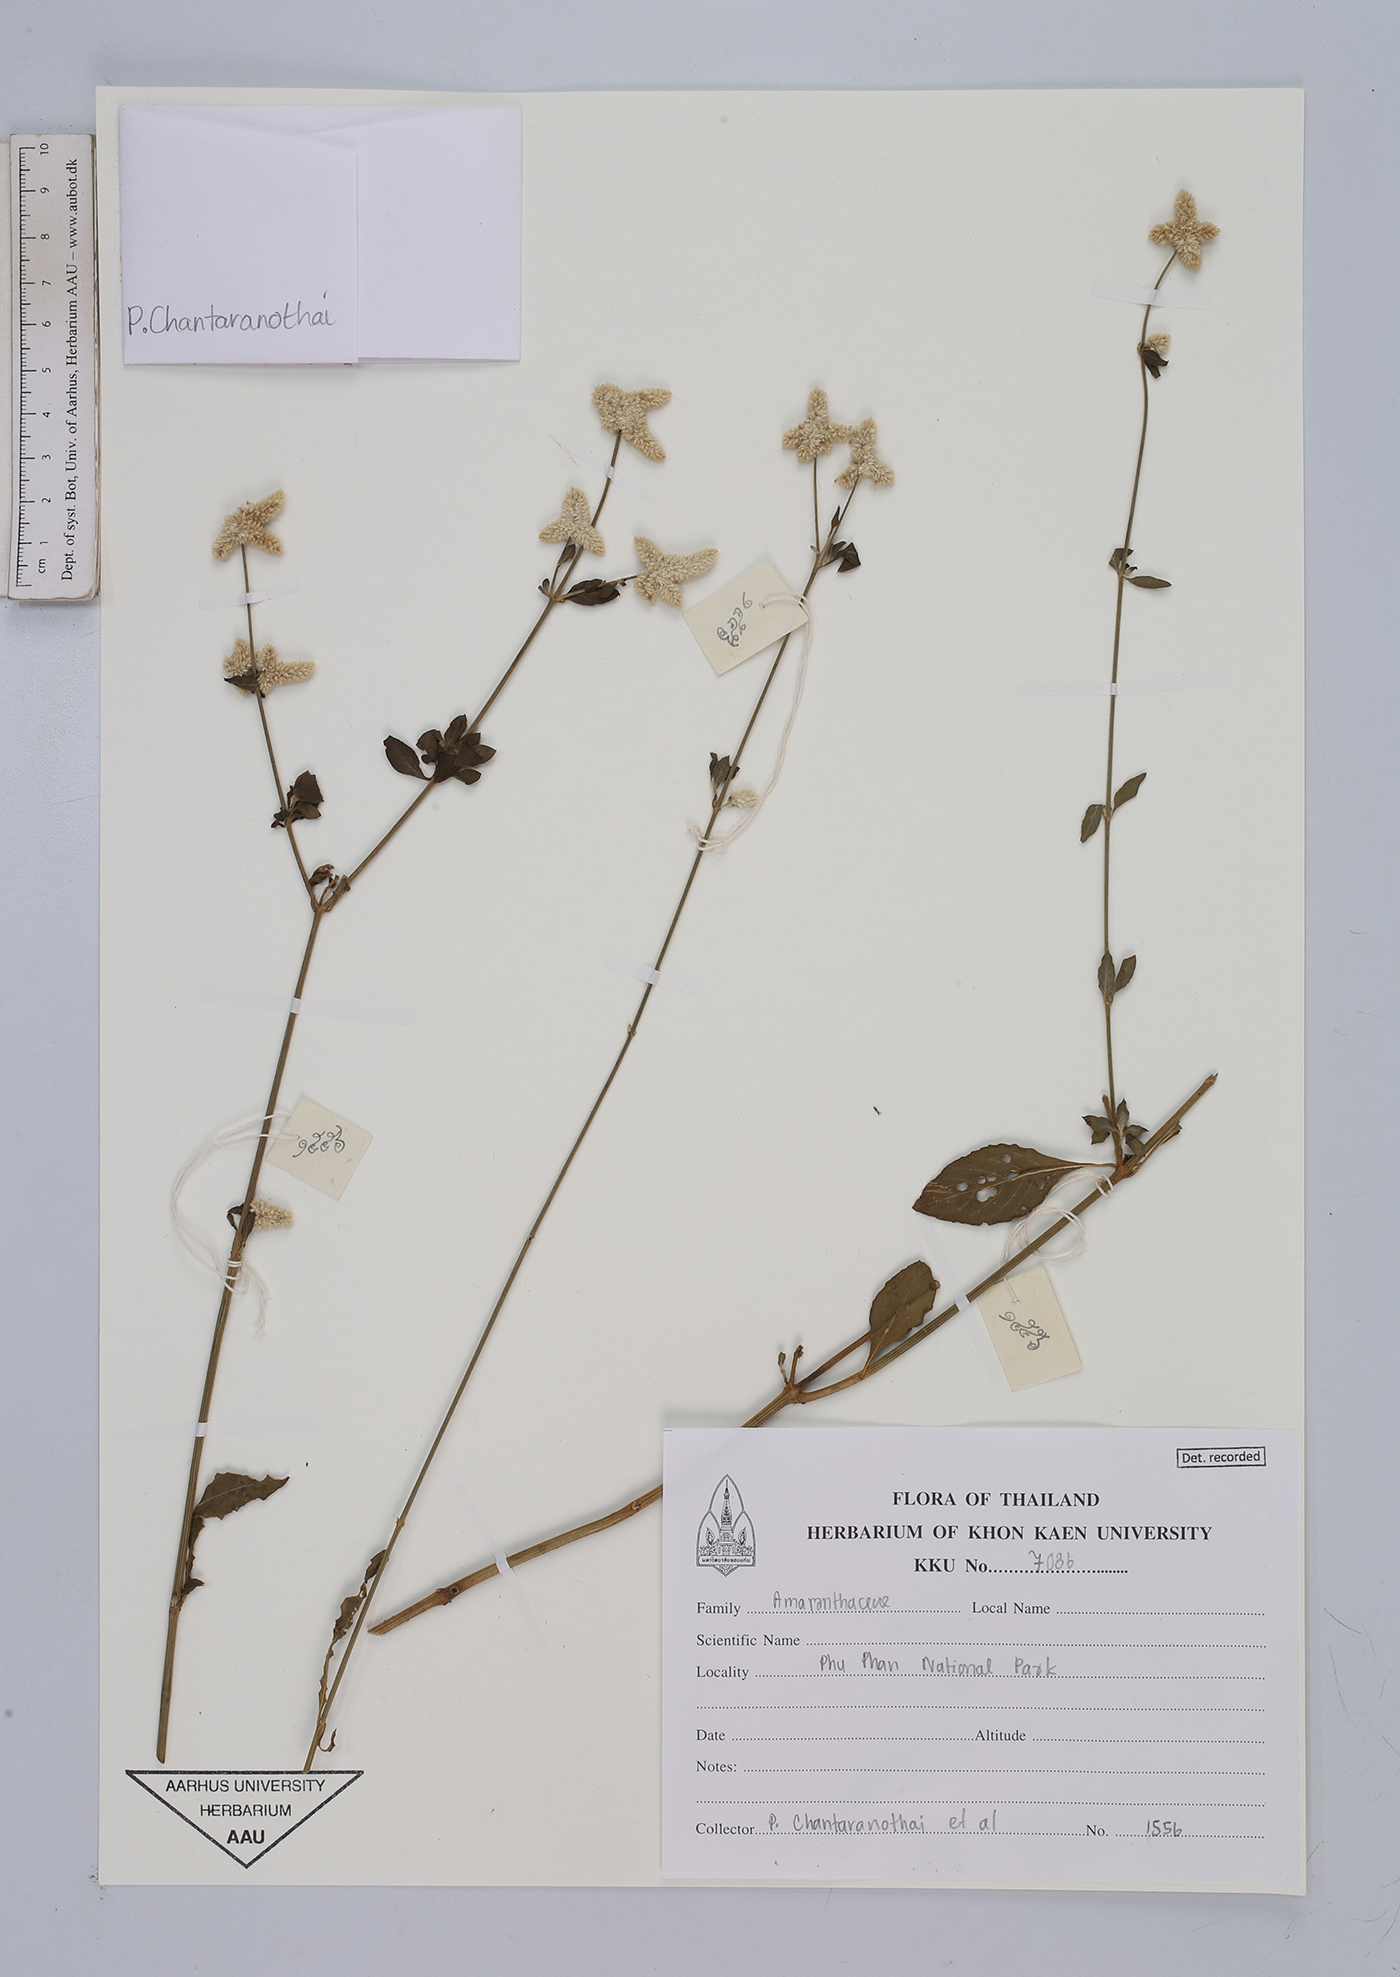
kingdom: Plantae
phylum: Tracheophyta
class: Magnoliopsida
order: Caryophyllales
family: Amaranthaceae
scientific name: Amaranthaceae
